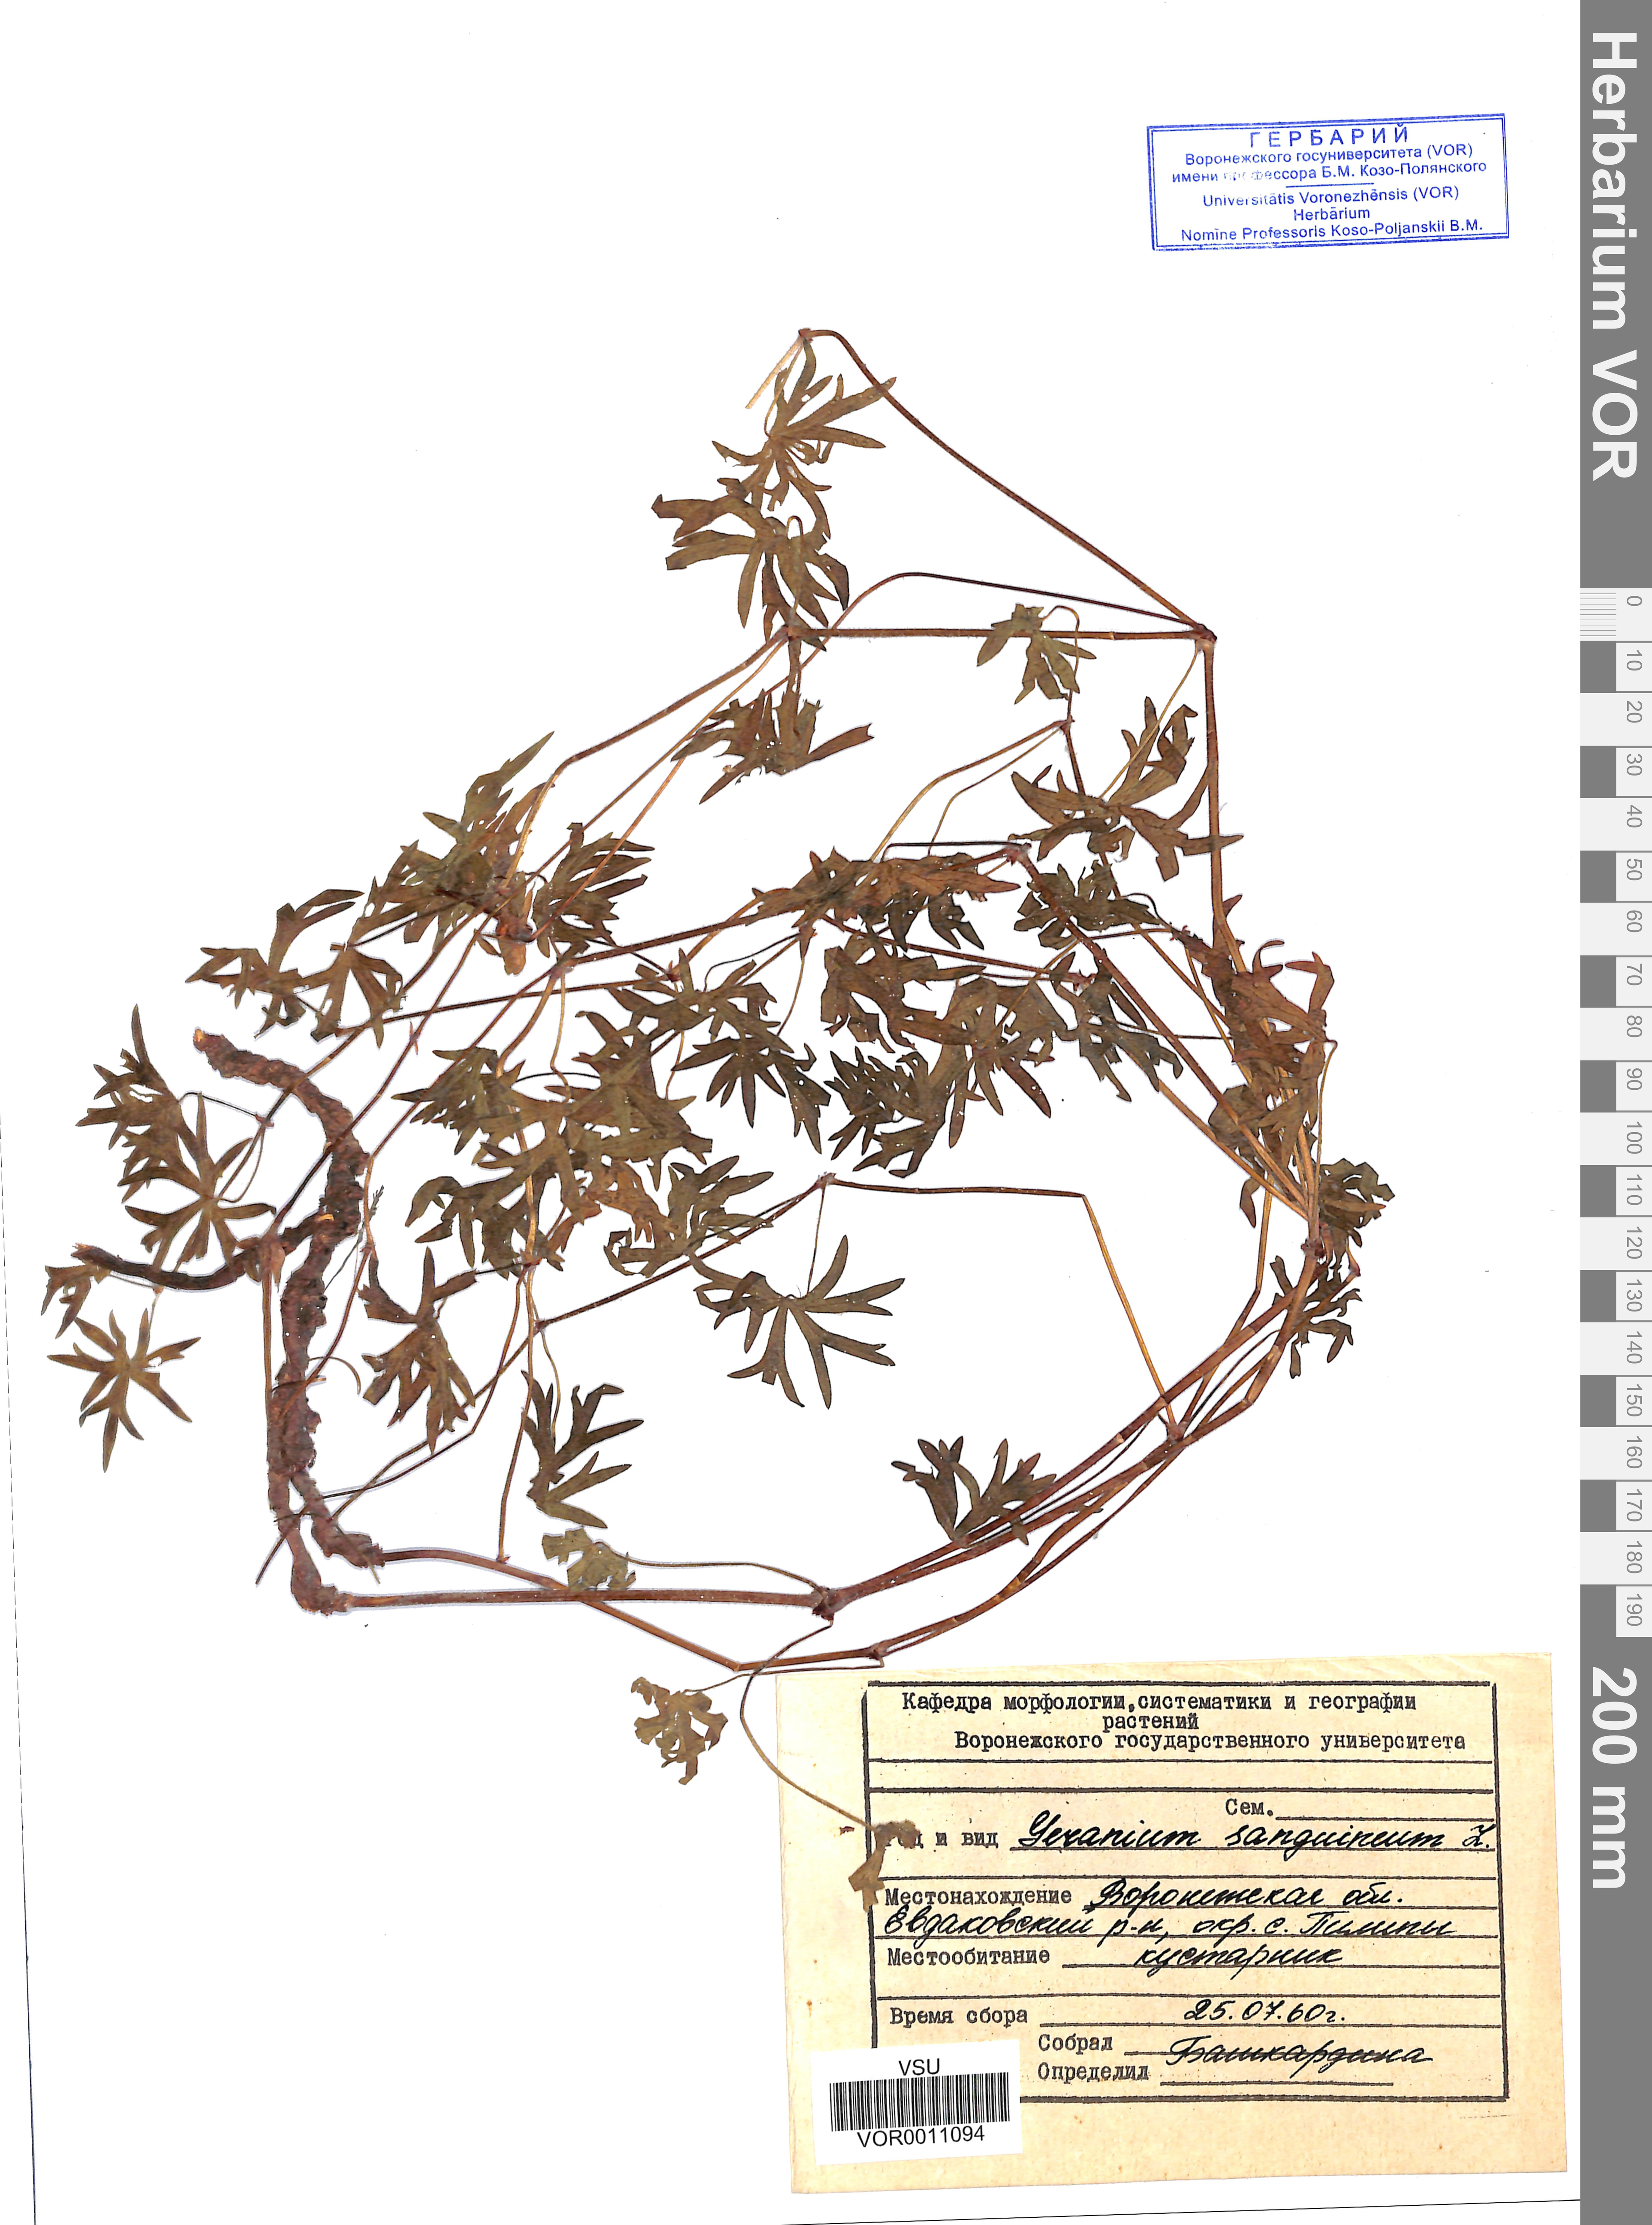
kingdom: Plantae
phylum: Tracheophyta
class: Magnoliopsida
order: Geraniales
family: Geraniaceae
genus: Geranium
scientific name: Geranium sanguineum
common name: Bloody crane's-bill
